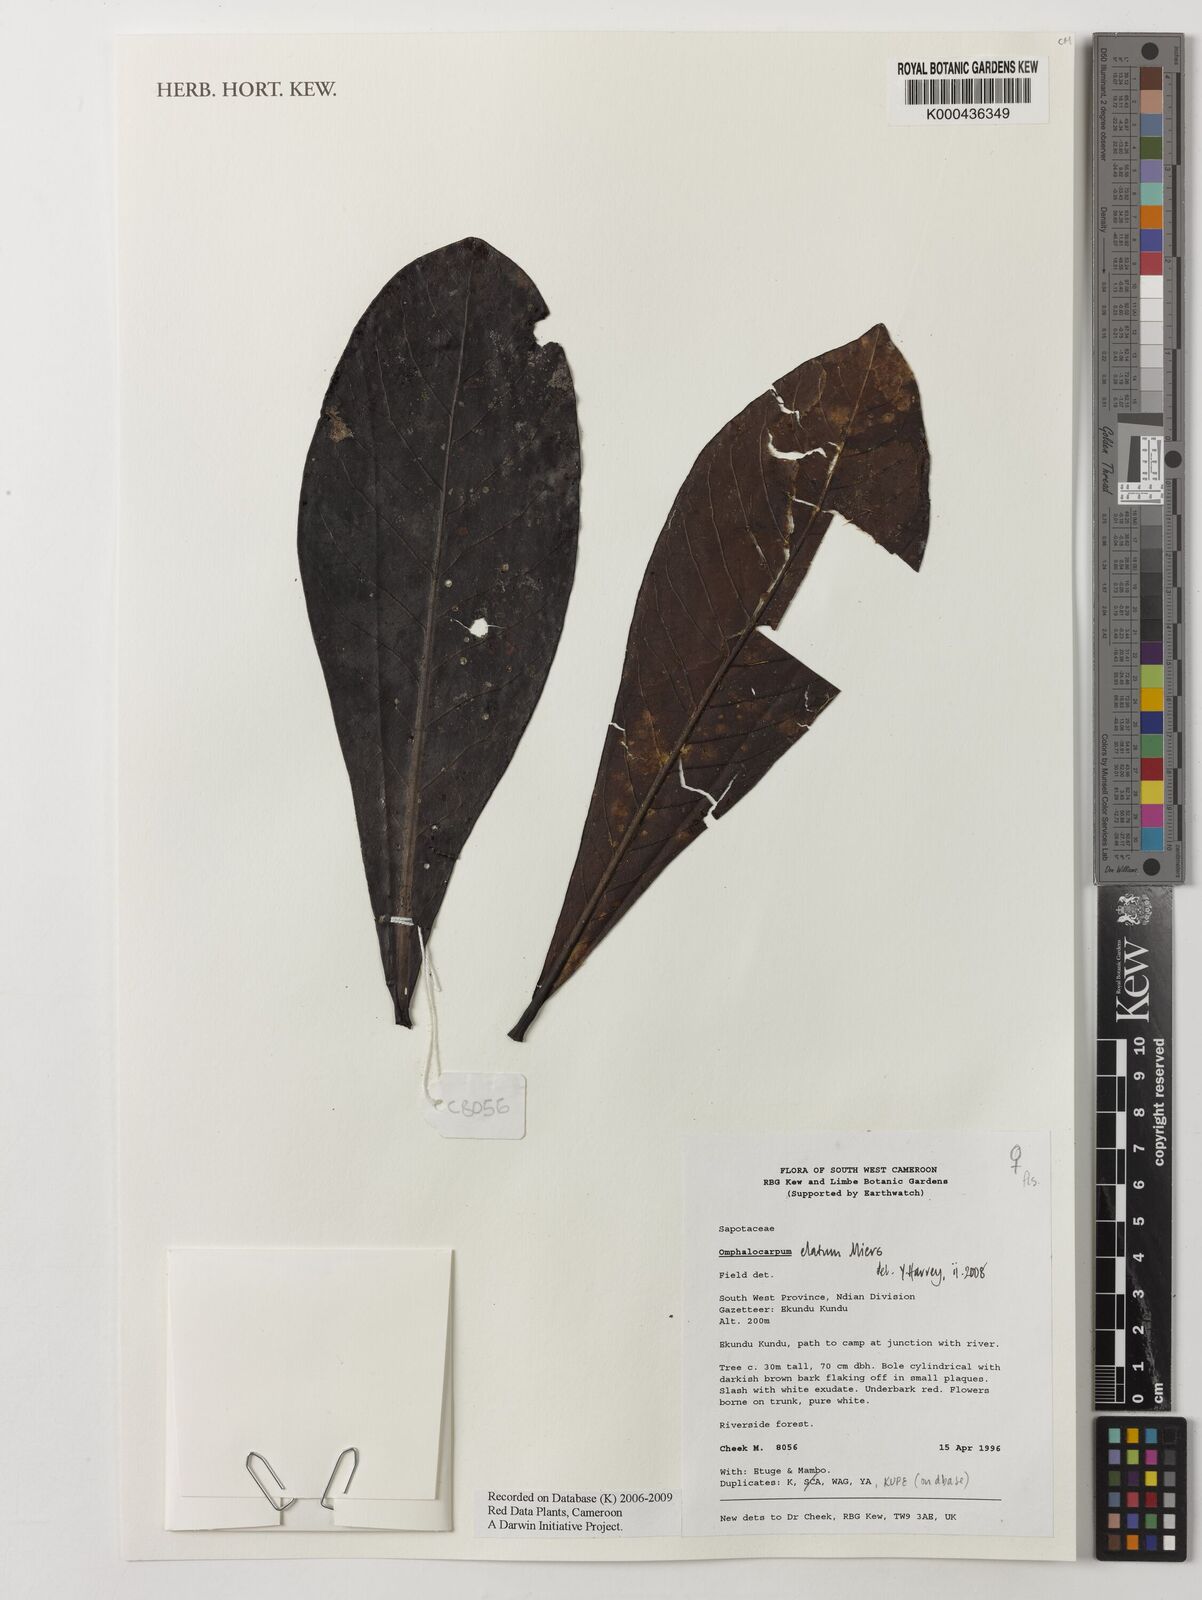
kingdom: Plantae
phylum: Tracheophyta
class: Magnoliopsida
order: Ericales
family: Sapotaceae
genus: Omphalocarpum
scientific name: Omphalocarpum elatum
